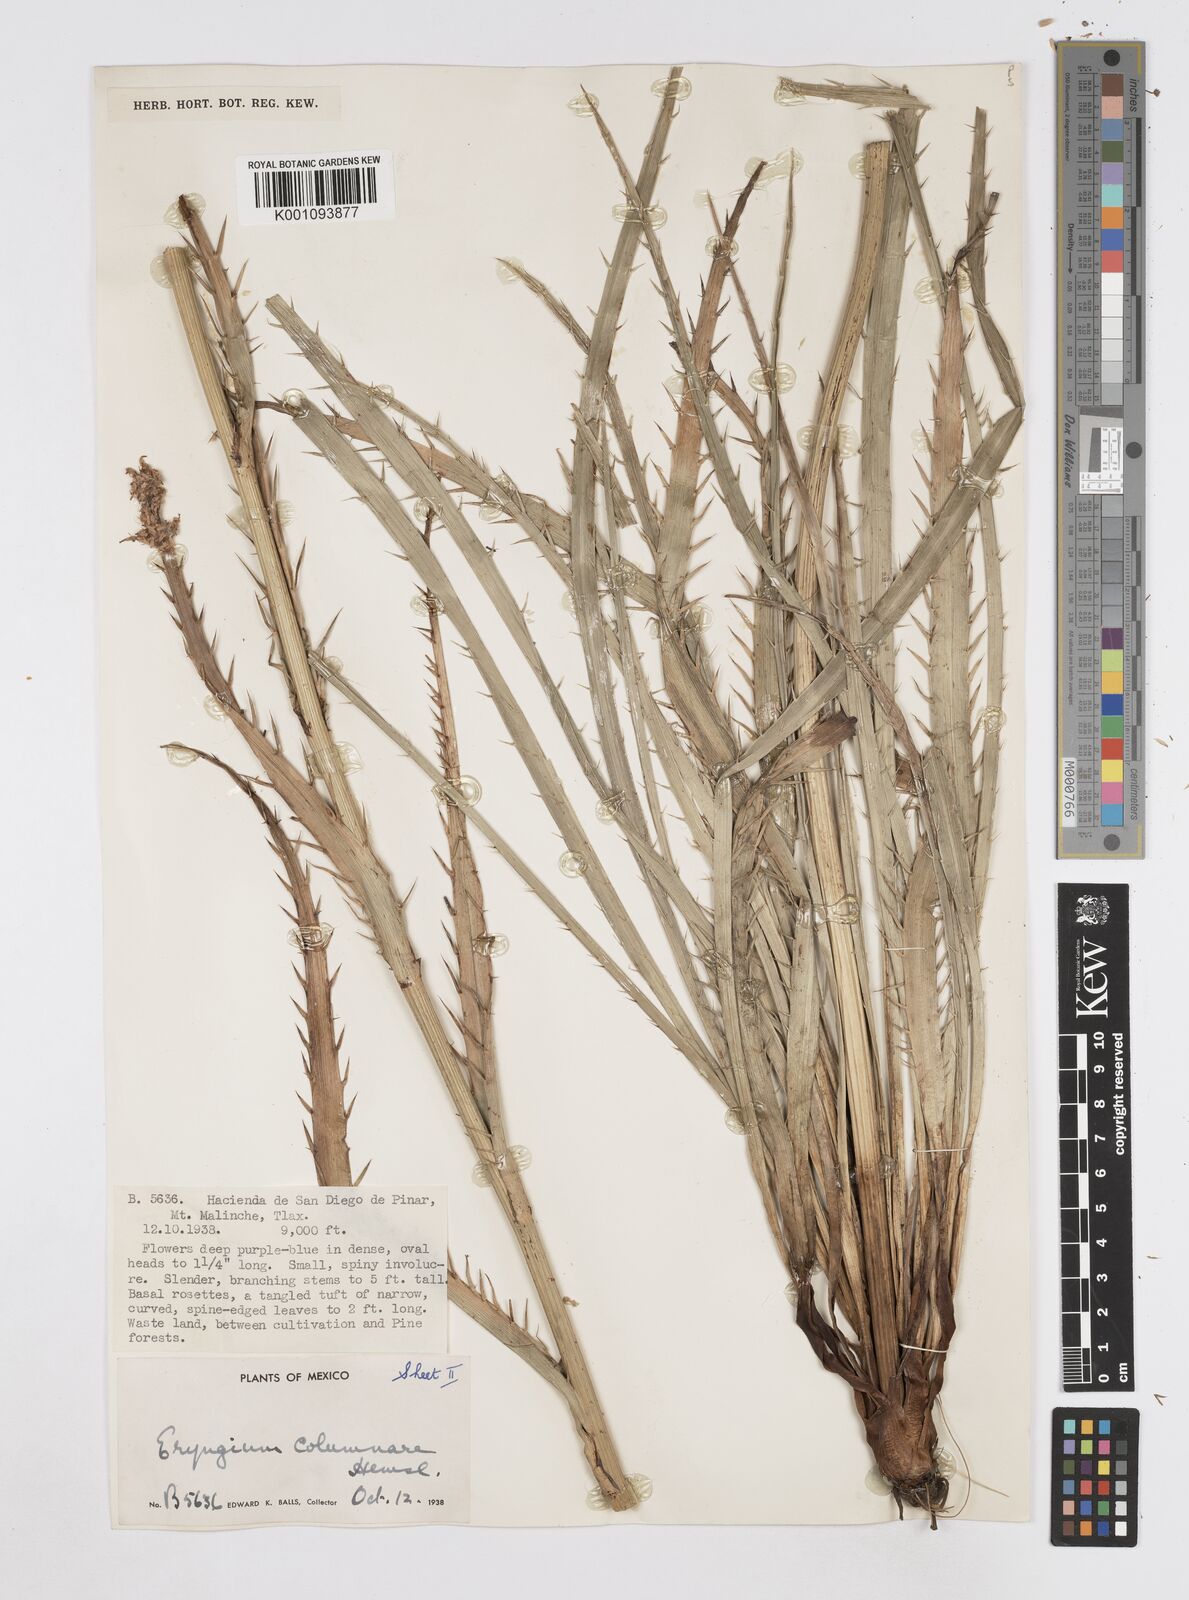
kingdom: Plantae
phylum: Tracheophyta
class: Magnoliopsida
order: Apiales
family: Apiaceae
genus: Eryngium
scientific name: Eryngium columnare
